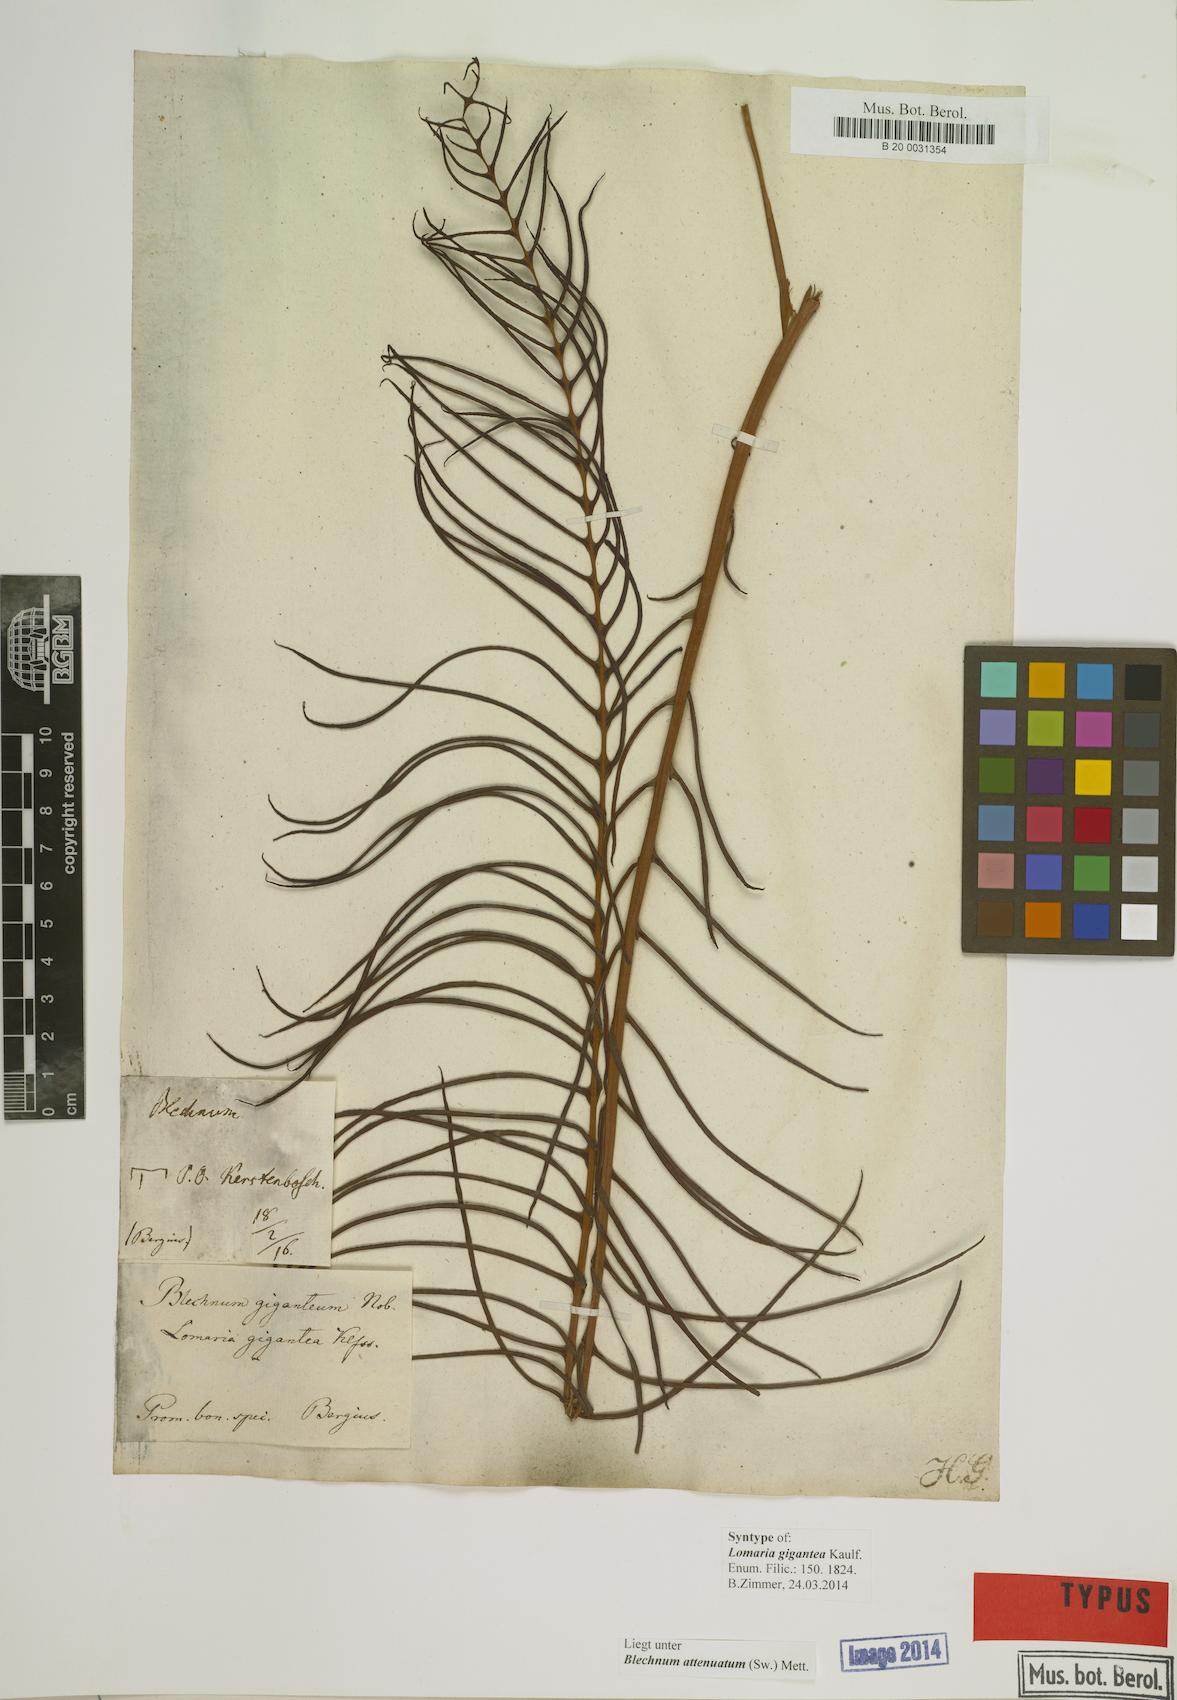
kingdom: Plantae
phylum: Tracheophyta
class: Polypodiopsida
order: Polypodiales
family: Blechnaceae
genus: Lomaridium
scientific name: Lomaridium attenuatum
